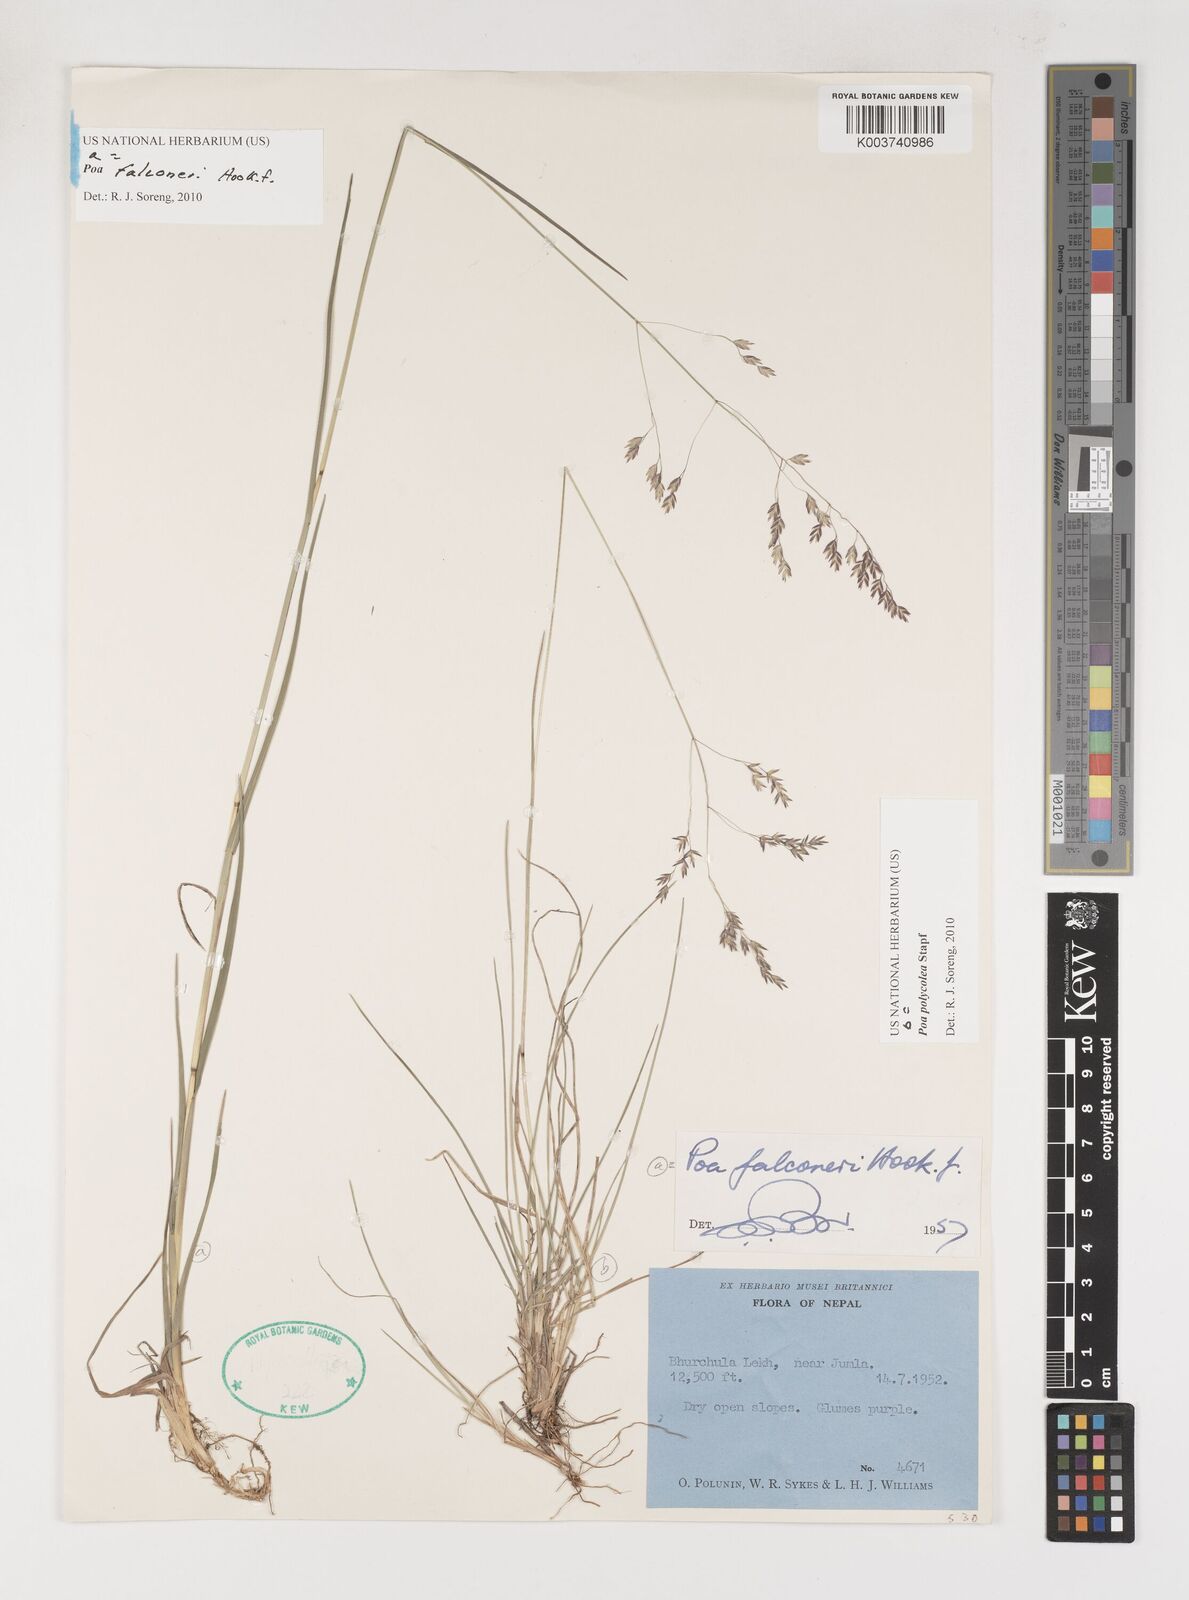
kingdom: Plantae
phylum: Tracheophyta
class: Liliopsida
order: Poales
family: Poaceae
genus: Poa
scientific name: Poa falconeri
